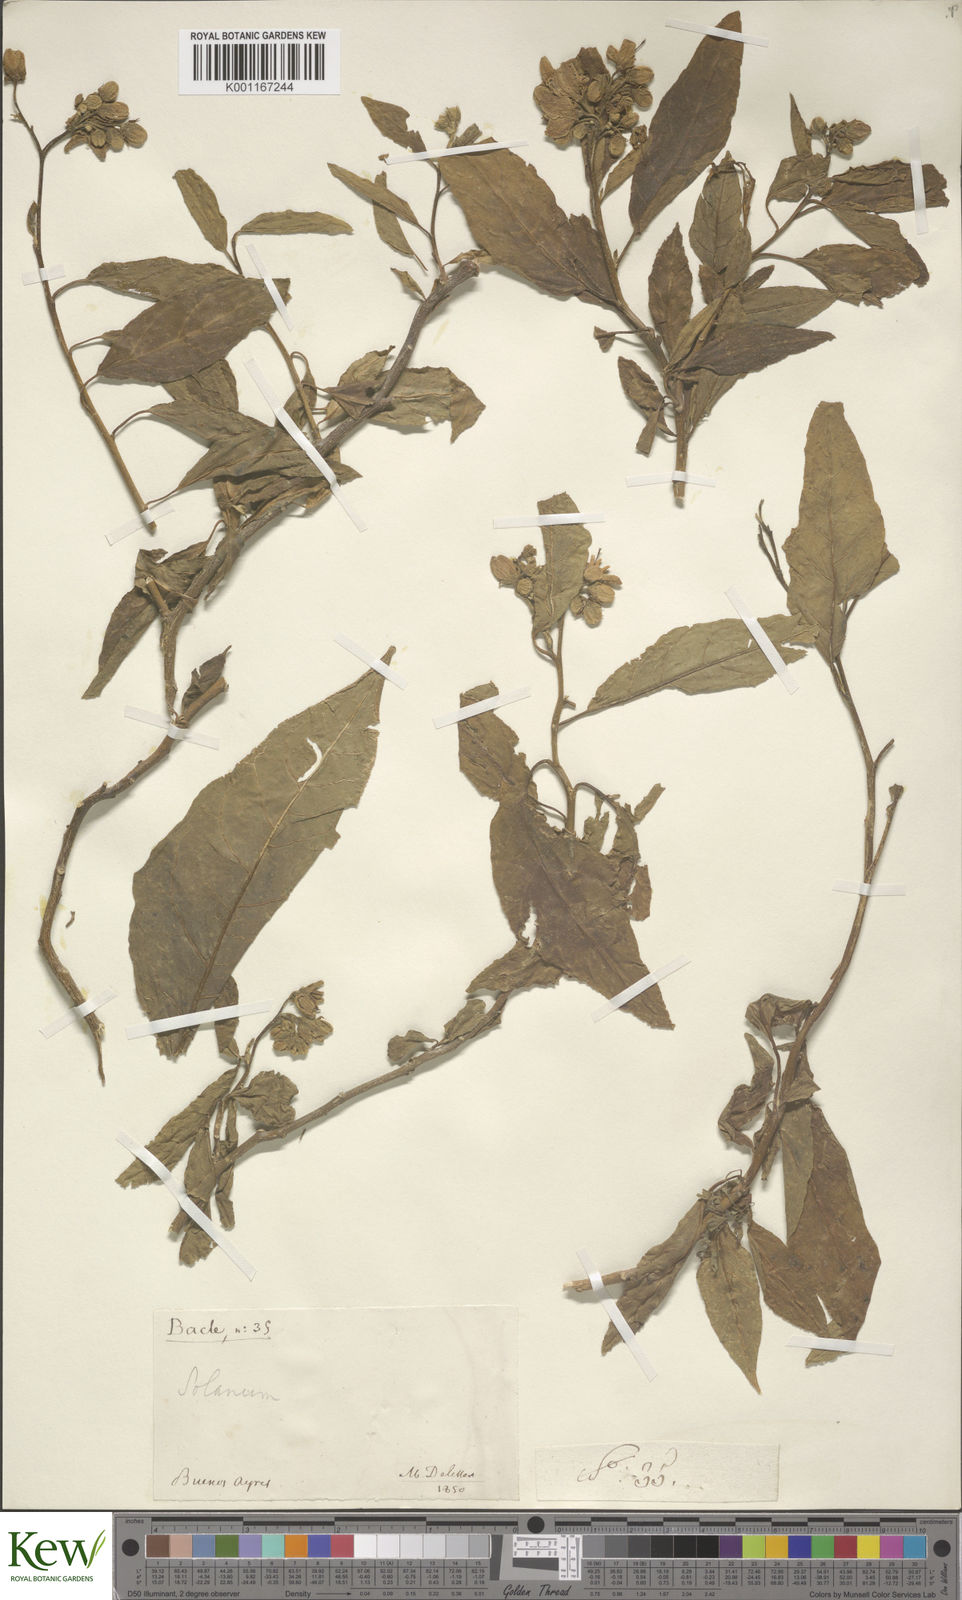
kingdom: Plantae
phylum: Tracheophyta
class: Magnoliopsida
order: Solanales
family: Solanaceae
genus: Solanum
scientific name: Solanum bonariense
